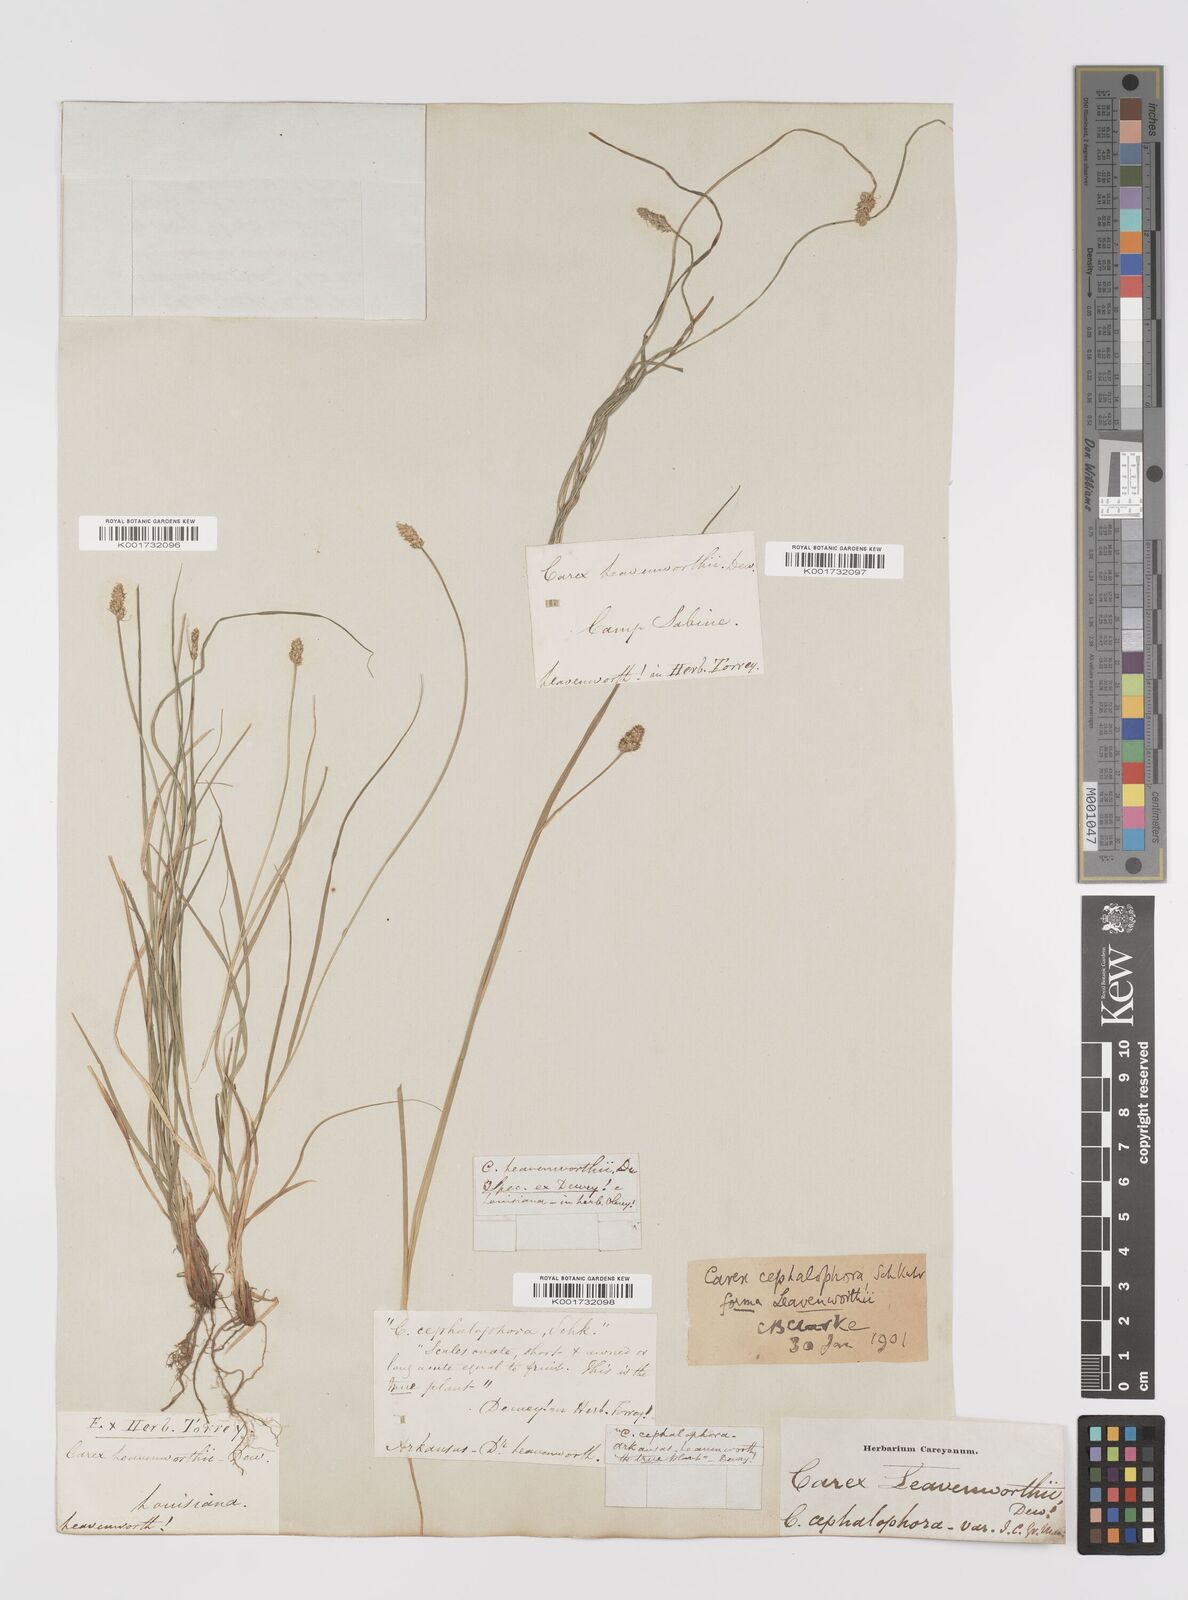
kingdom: Plantae
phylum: Tracheophyta
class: Liliopsida
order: Poales
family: Cyperaceae
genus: Carex
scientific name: Carex cephalophora
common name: Oval-headed sedge
